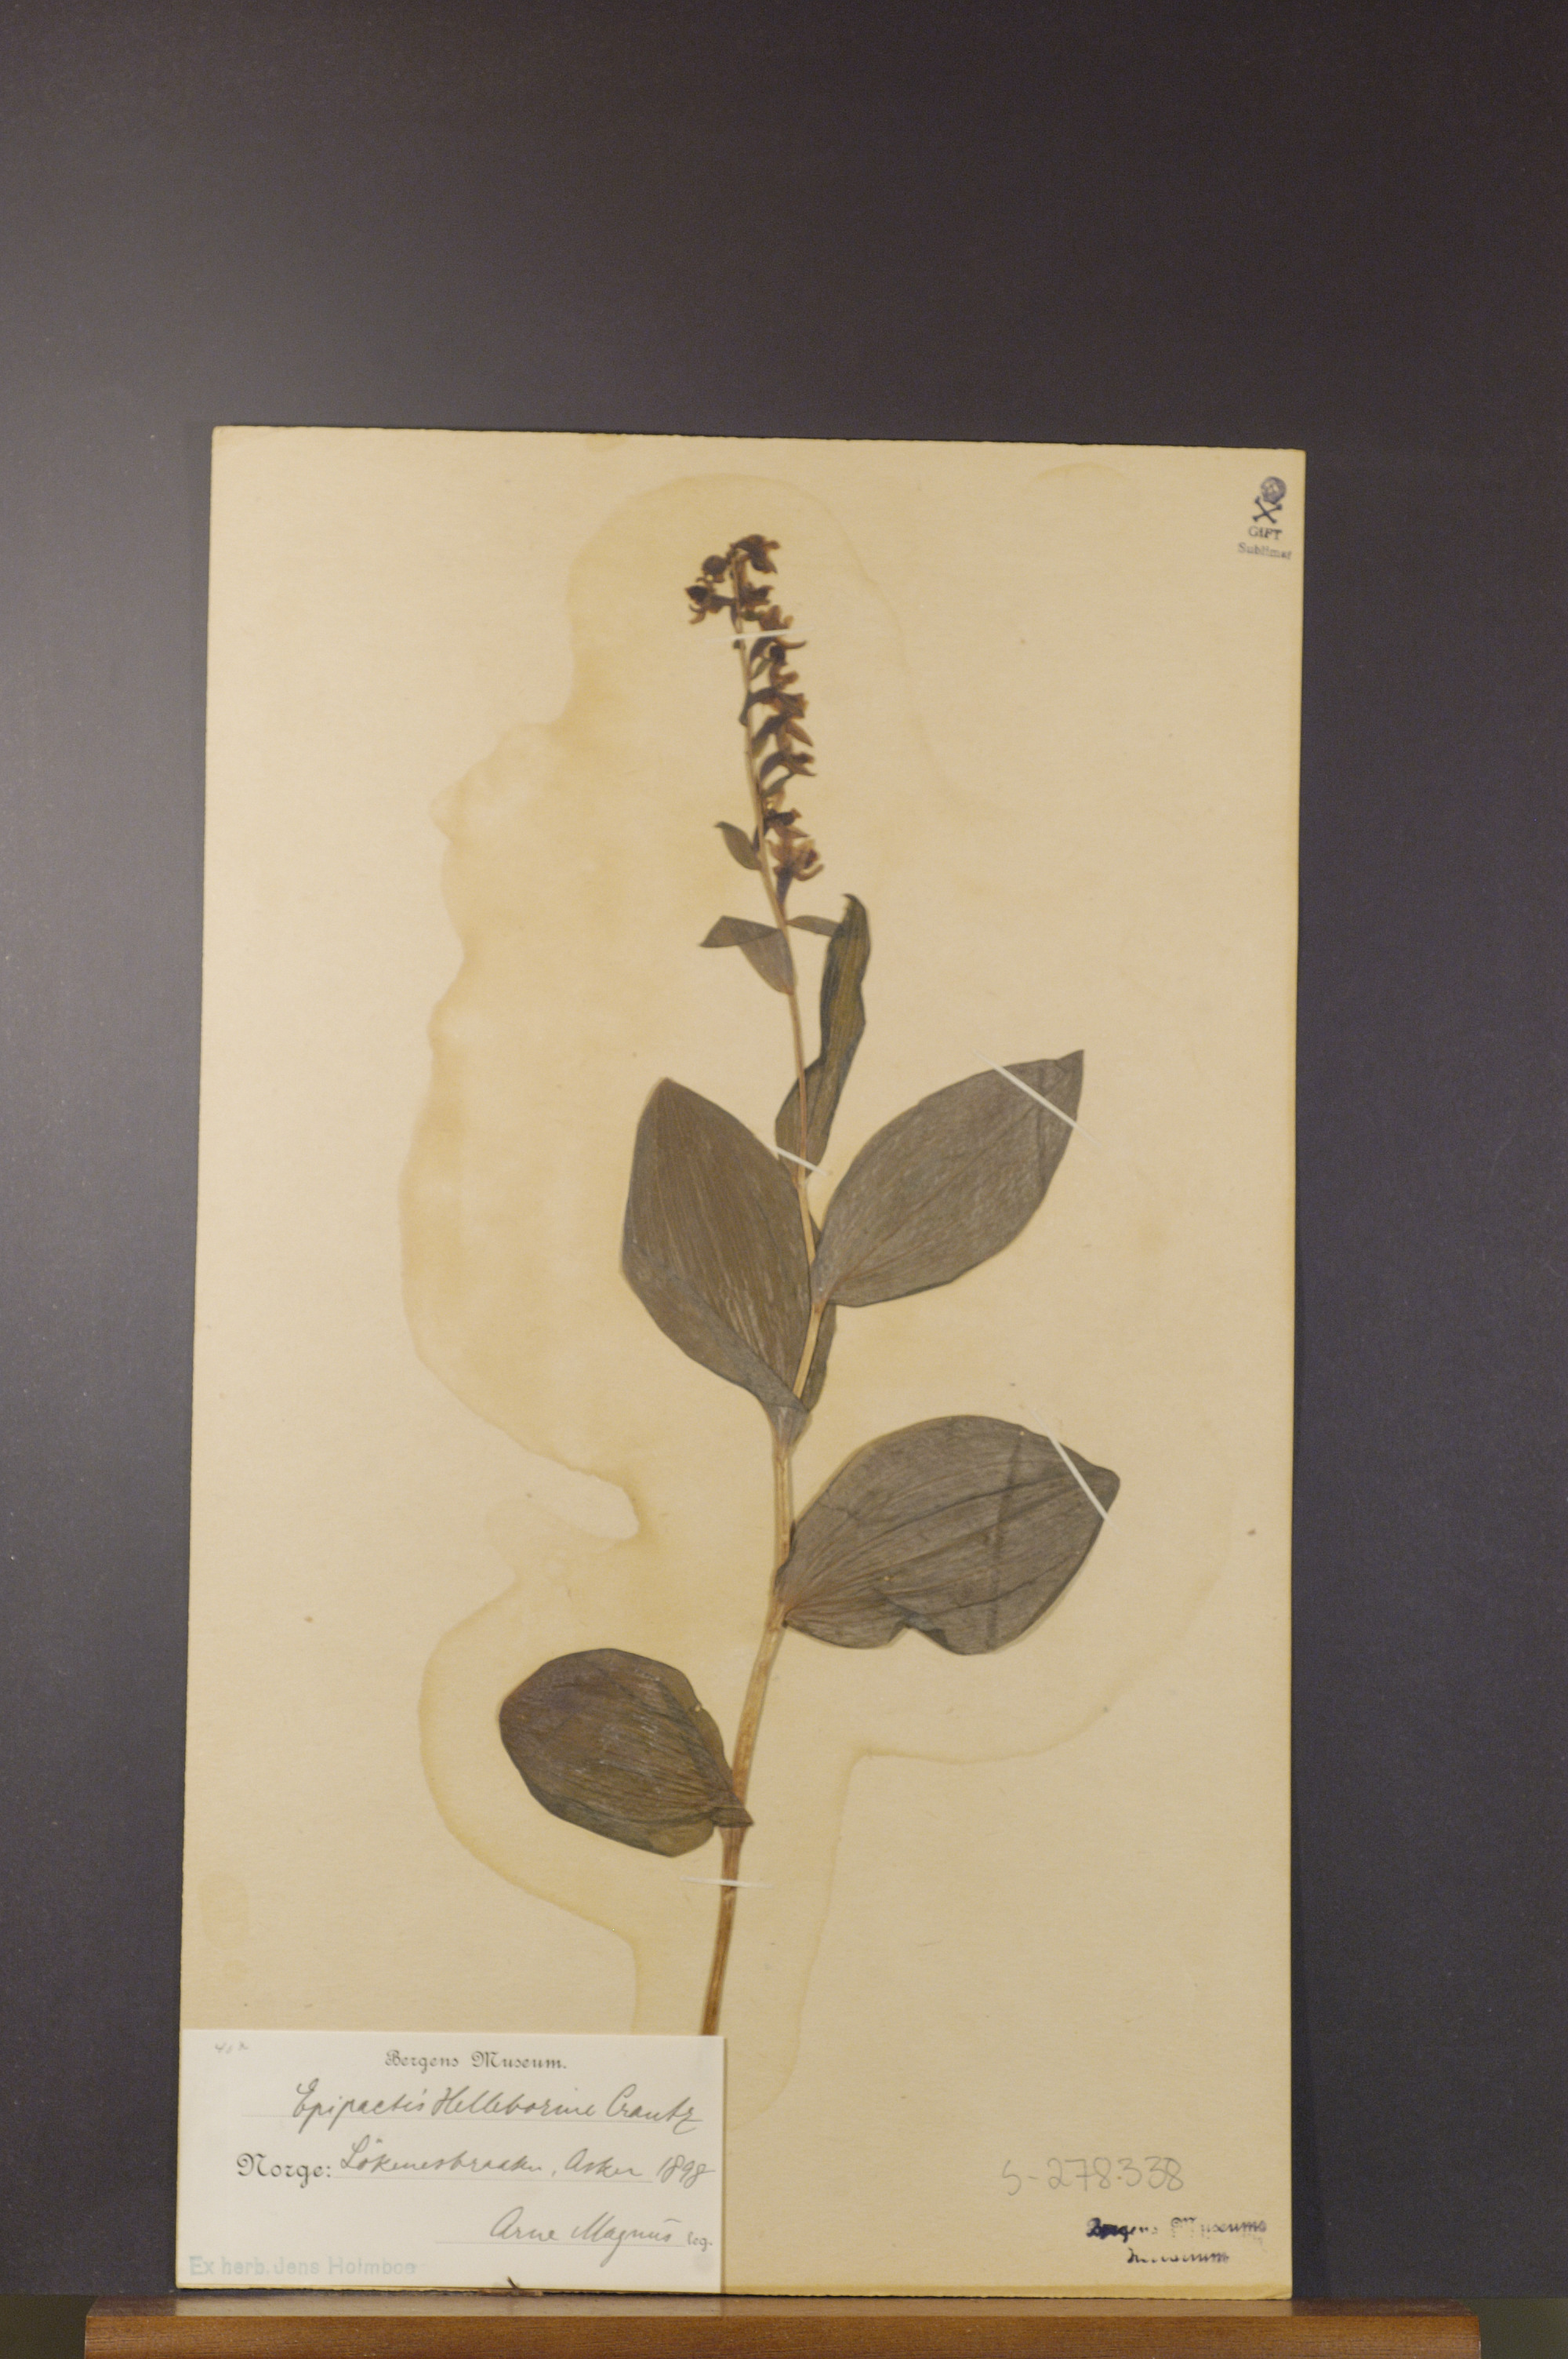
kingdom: Plantae
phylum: Tracheophyta
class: Liliopsida
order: Asparagales
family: Orchidaceae
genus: Epipactis
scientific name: Epipactis helleborine
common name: Broad-leaved helleborine
